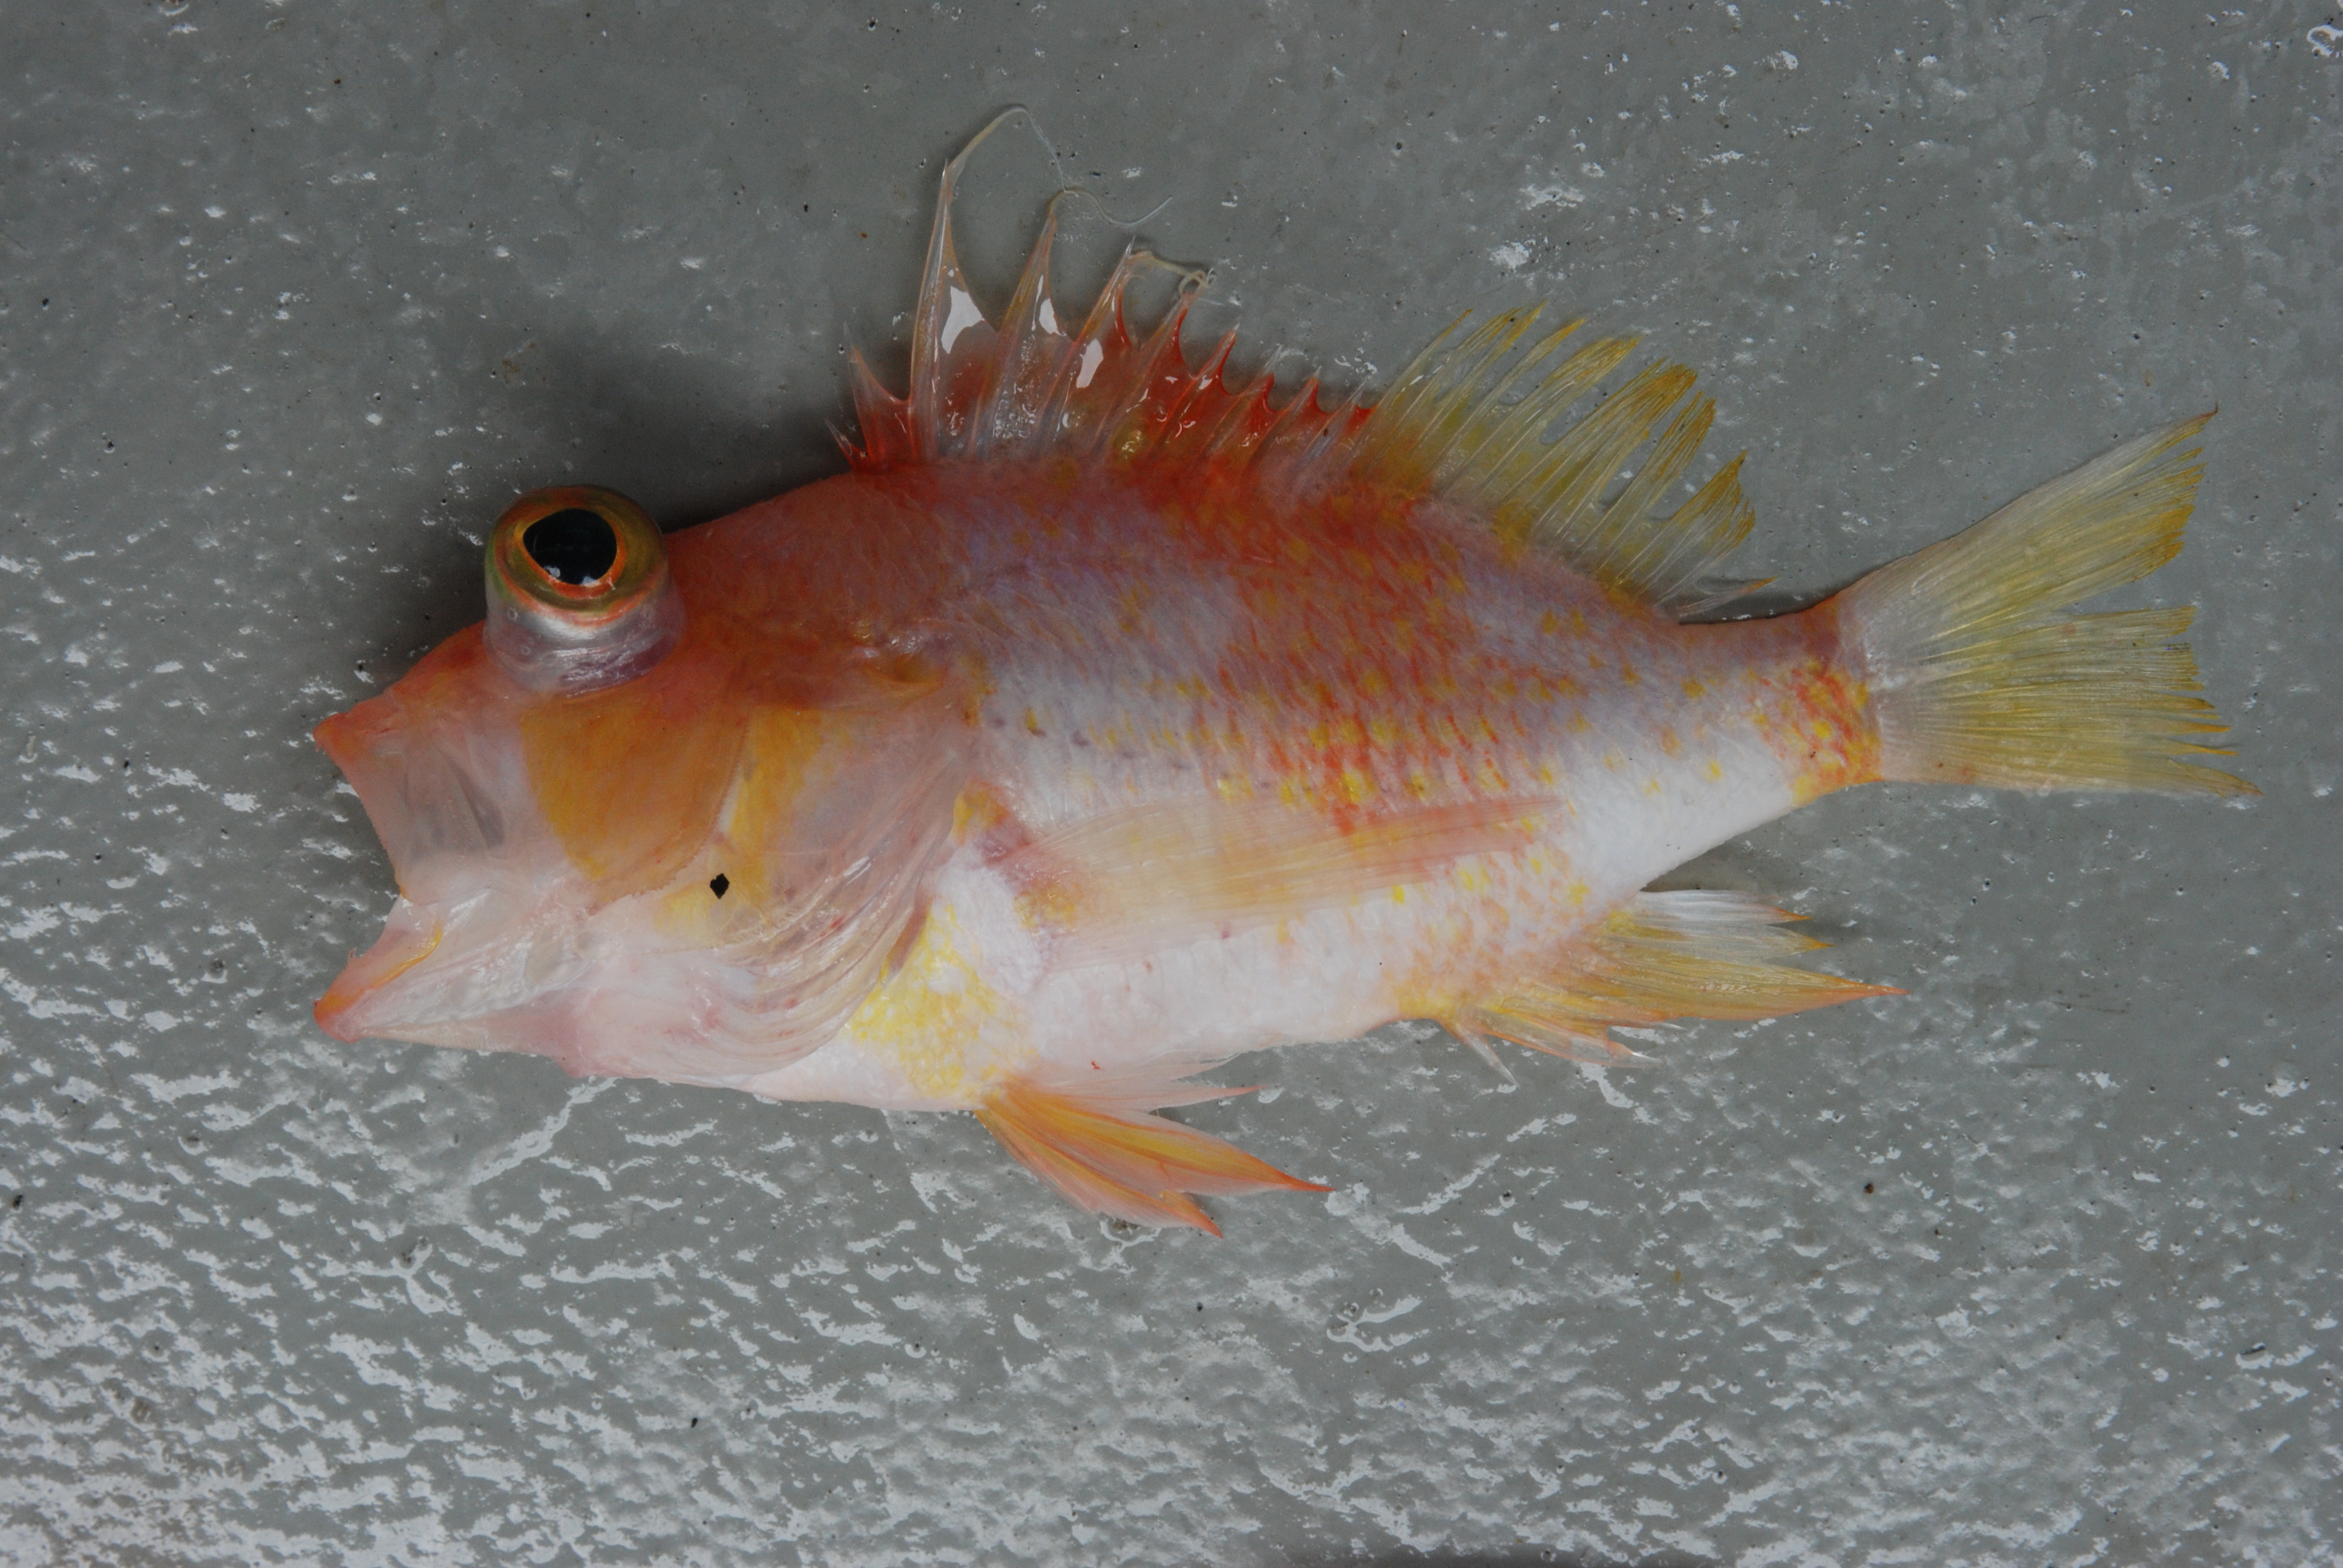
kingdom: Animalia
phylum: Chordata
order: Perciformes
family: Serranidae
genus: Plectranthias
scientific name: Plectranthias bauchotae
